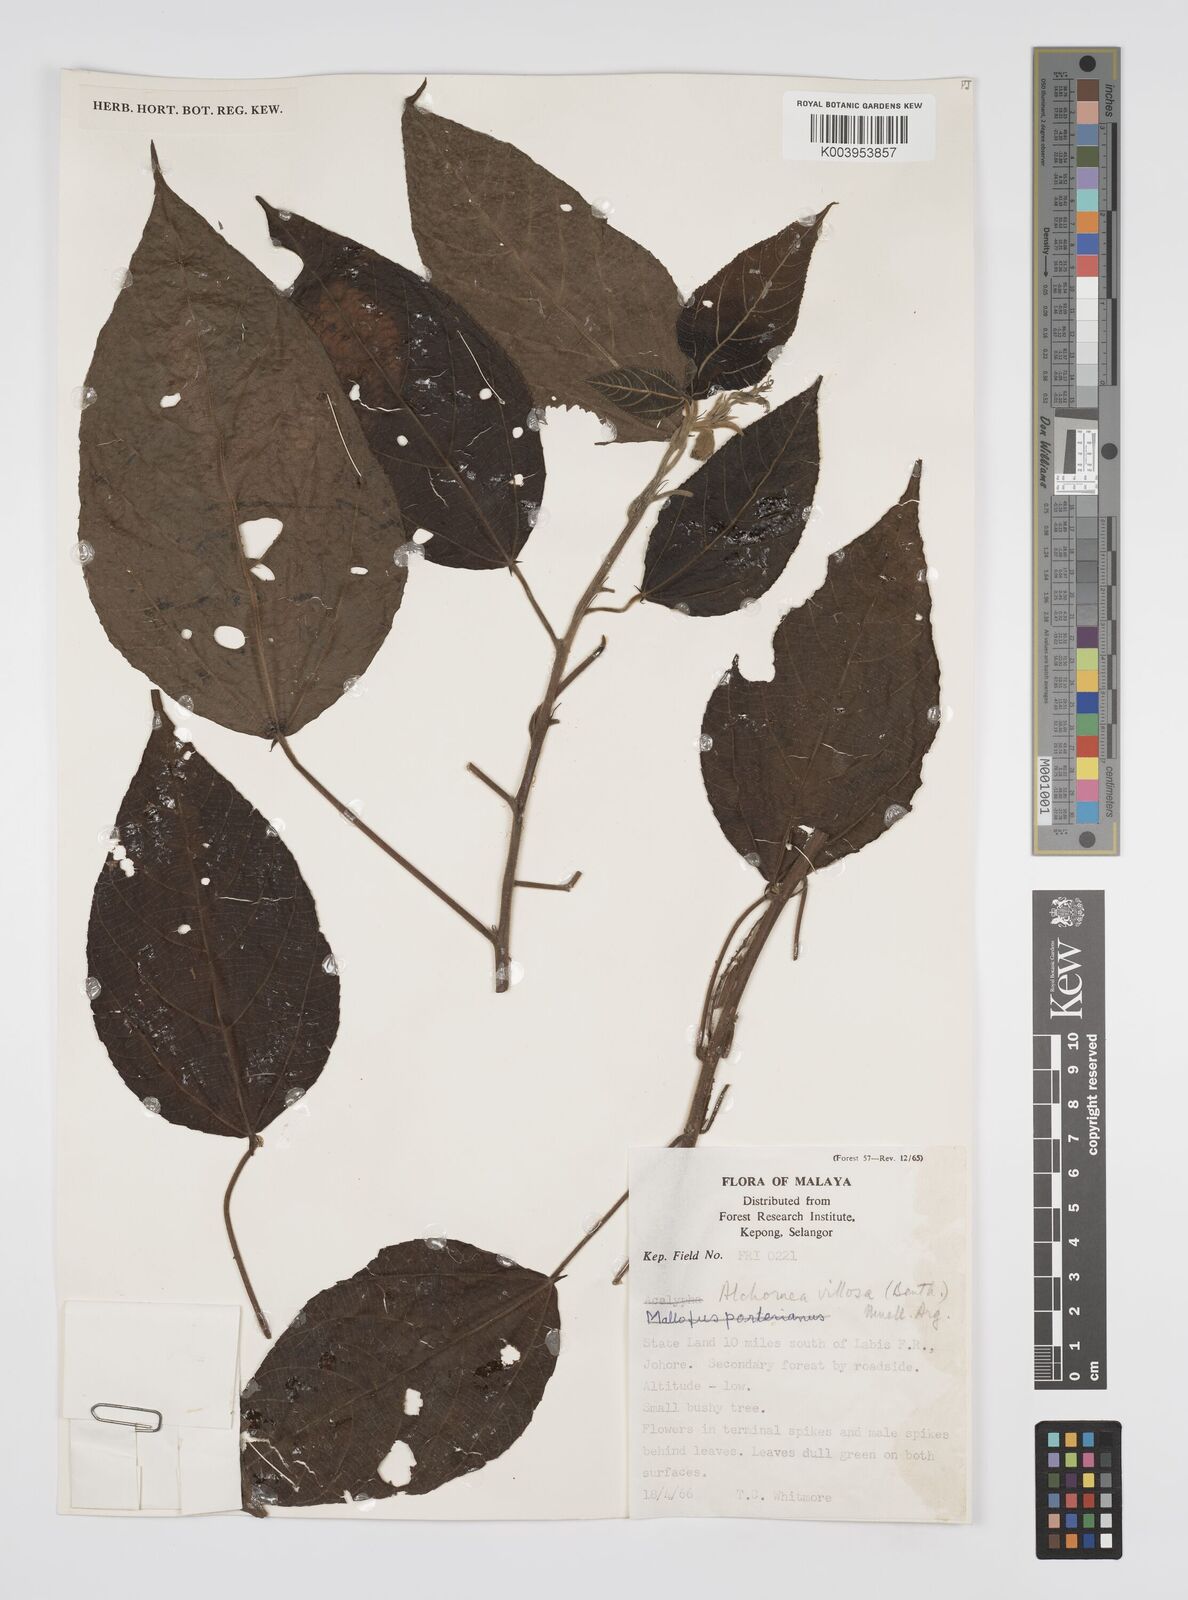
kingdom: Plantae
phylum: Tracheophyta
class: Magnoliopsida
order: Malpighiales
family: Euphorbiaceae
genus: Alchornea
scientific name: Alchornea tiliifolia
